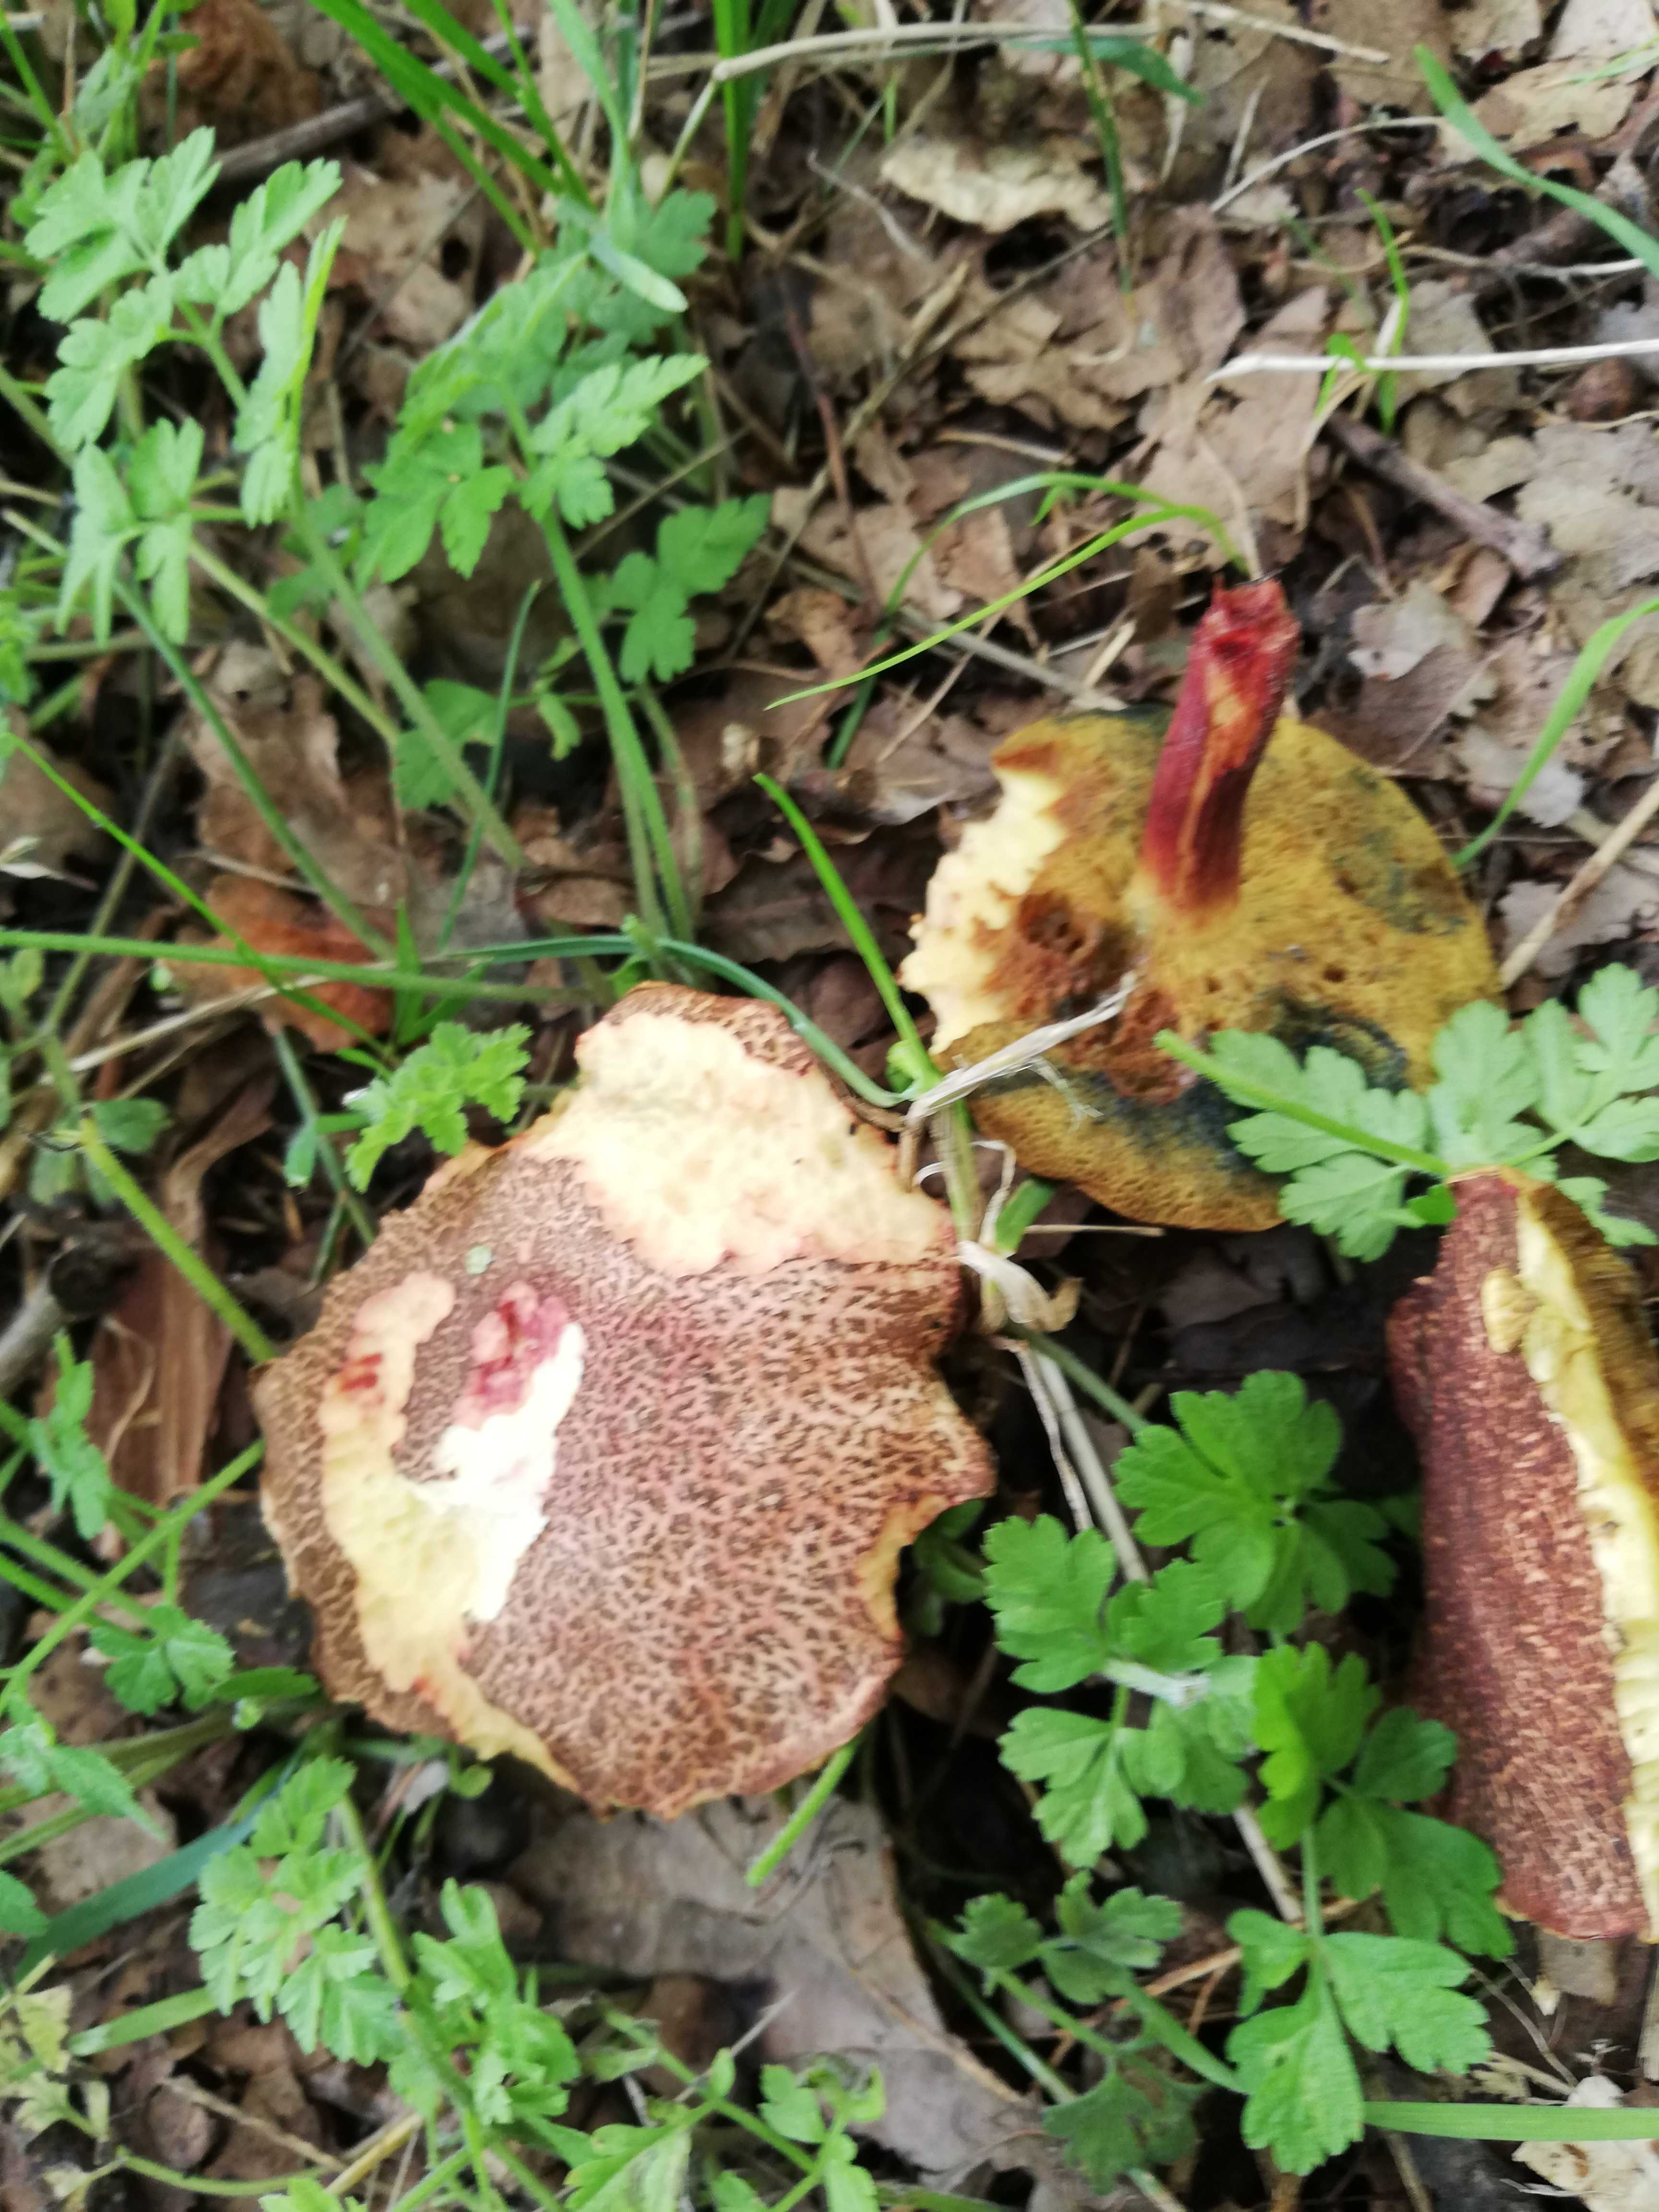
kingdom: Fungi
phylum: Basidiomycota
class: Agaricomycetes
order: Boletales
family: Boletaceae
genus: Xerocomellus
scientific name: Xerocomellus cisalpinus
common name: finsprukken rørhat
